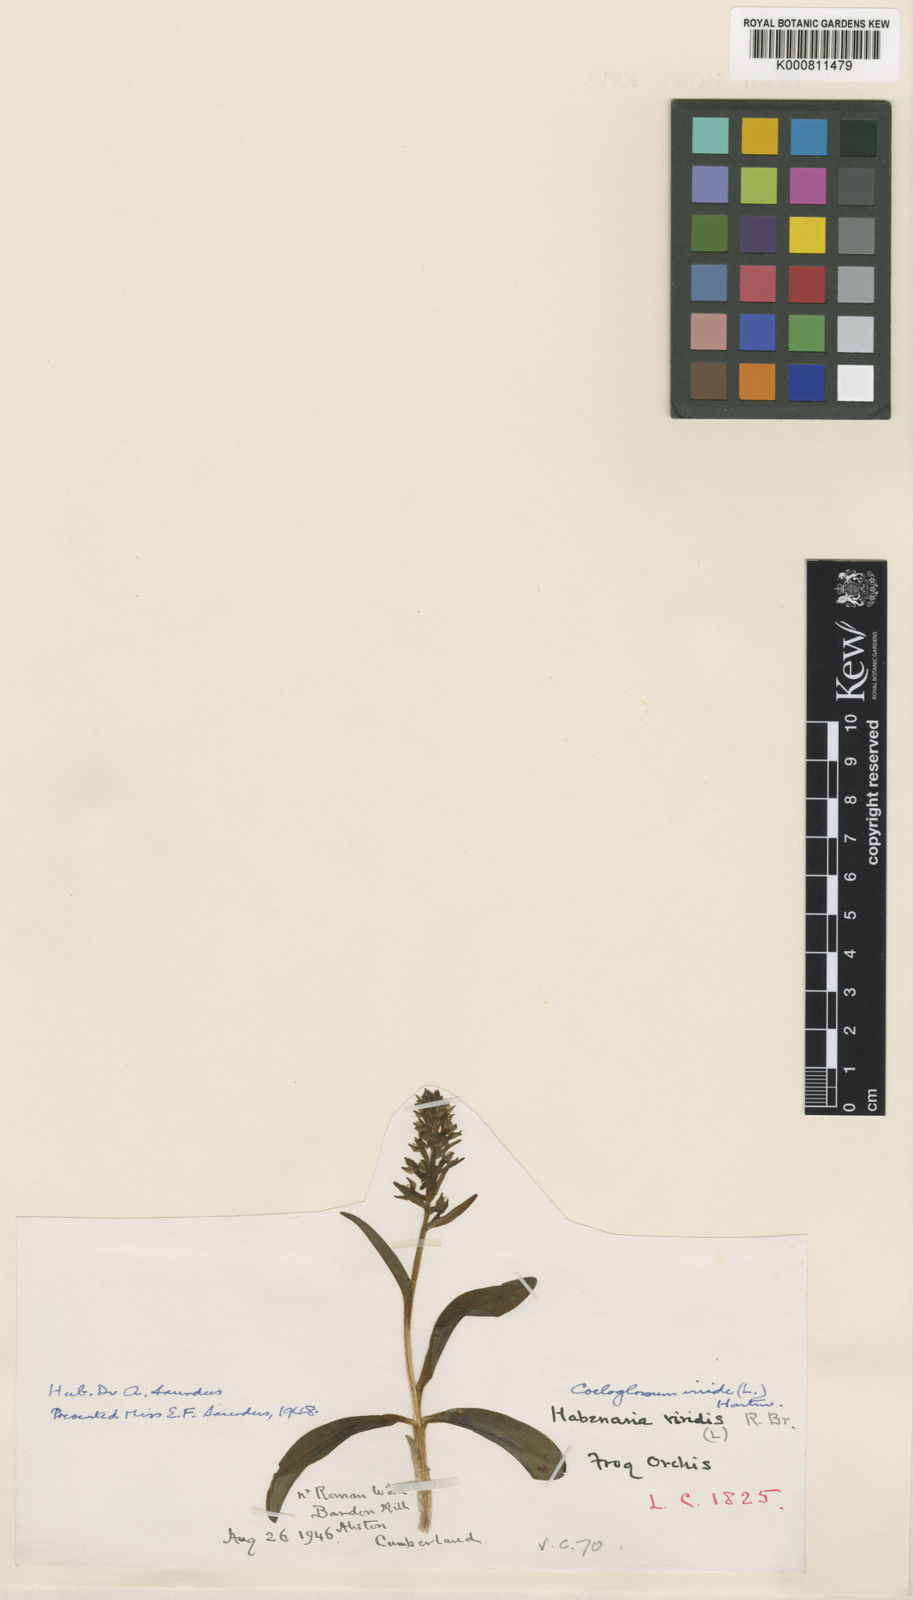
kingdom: Plantae
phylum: Tracheophyta
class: Liliopsida
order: Asparagales
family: Orchidaceae
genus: Dactylorhiza
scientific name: Dactylorhiza viridis
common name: Longbract frog orchid
